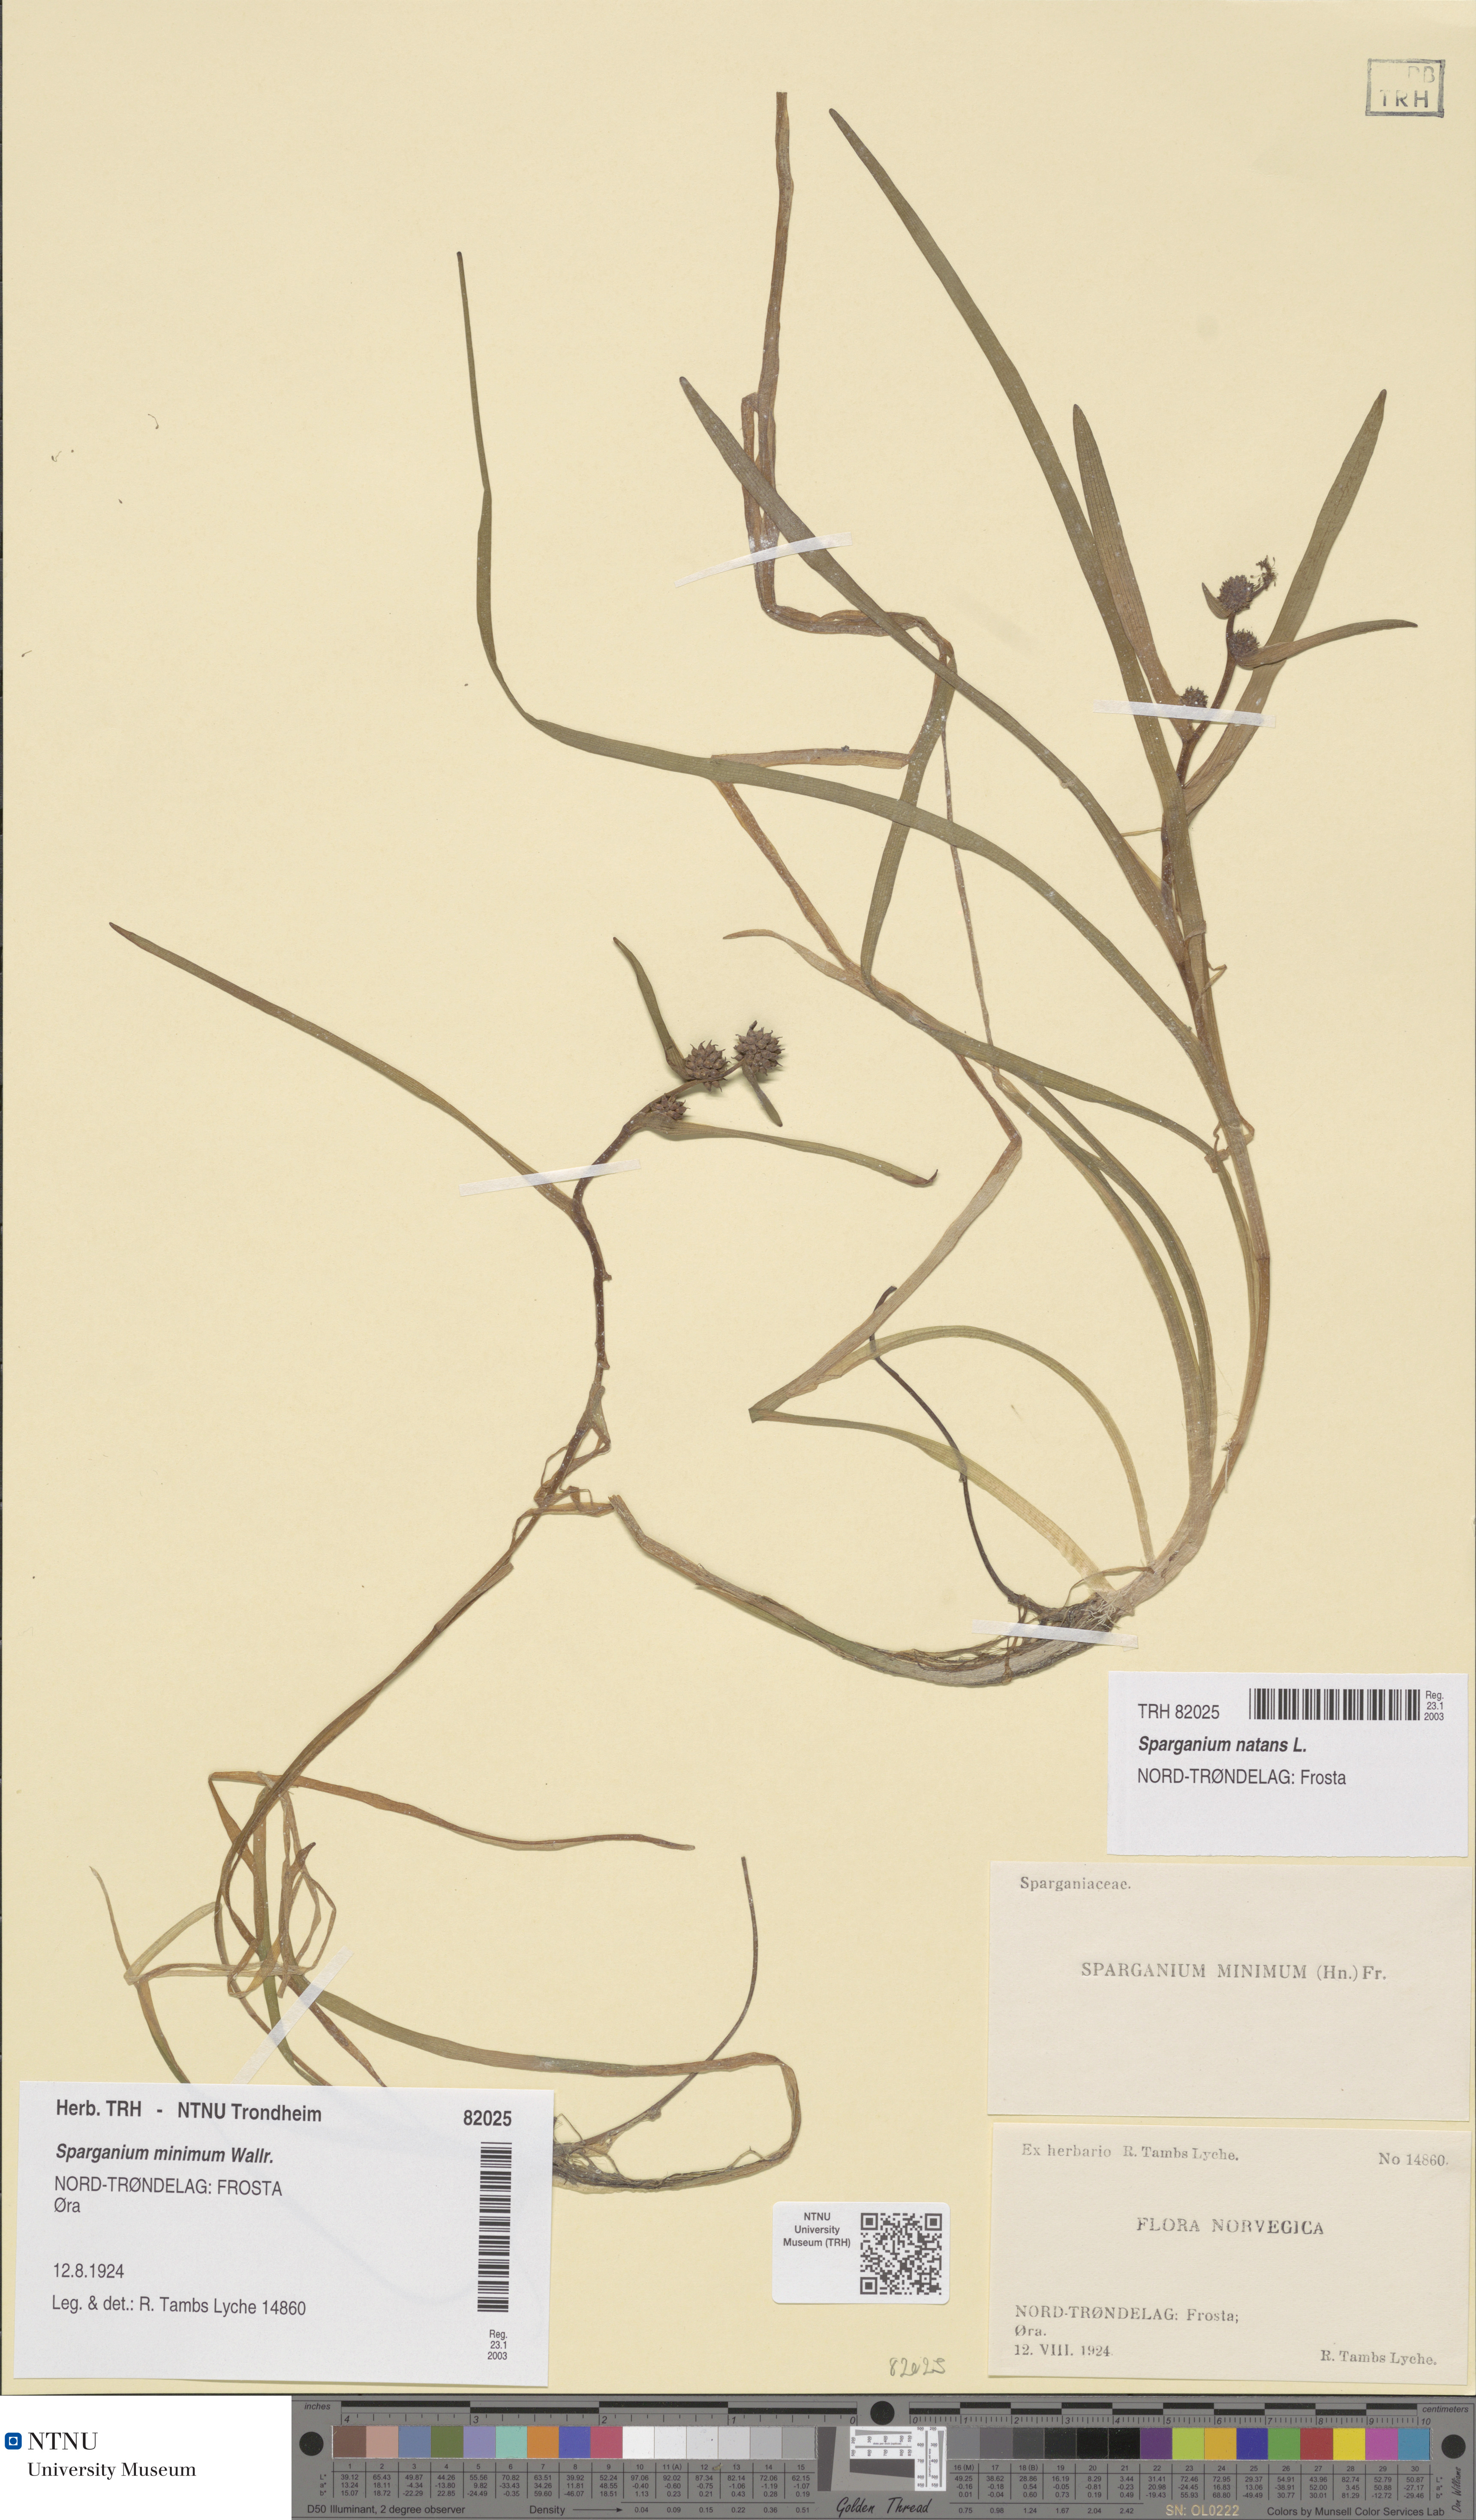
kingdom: Plantae
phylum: Tracheophyta
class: Liliopsida
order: Poales
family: Typhaceae
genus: Sparganium
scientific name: Sparganium natans
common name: Least bur-reed
